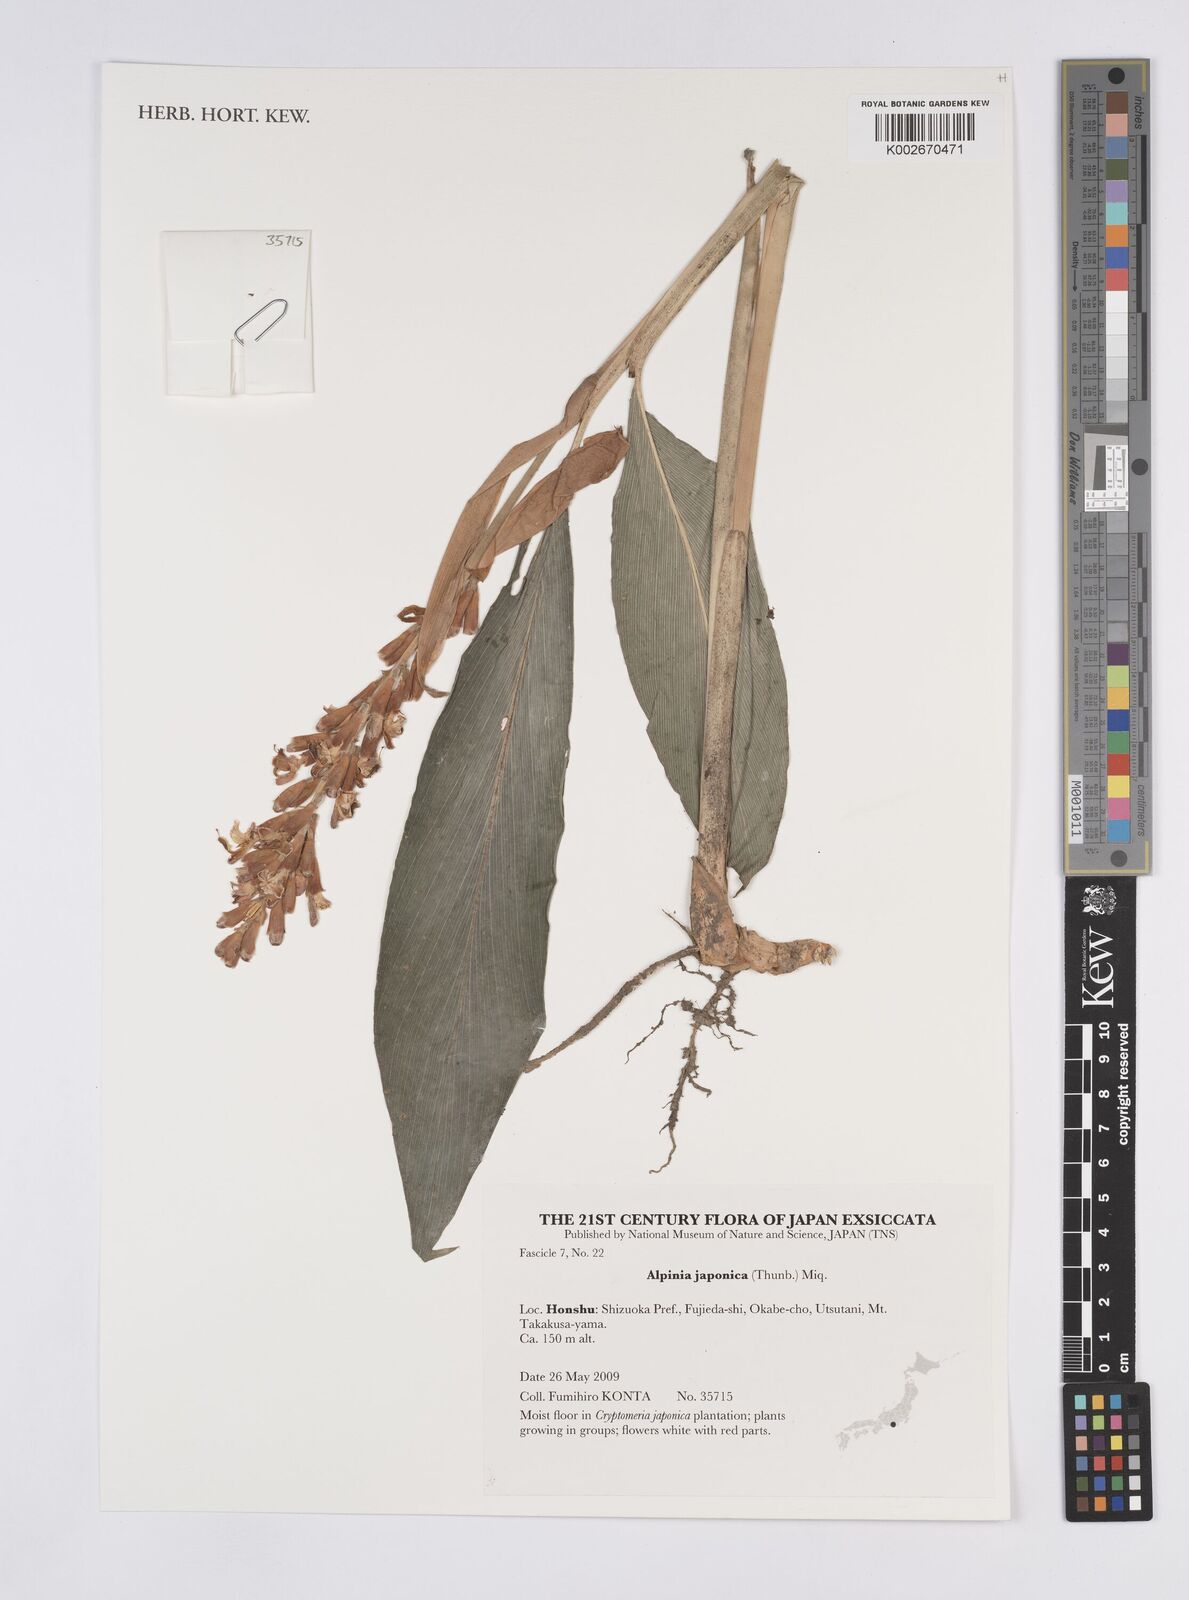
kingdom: Plantae
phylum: Tracheophyta
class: Liliopsida
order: Zingiberales
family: Zingiberaceae
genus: Alpinia
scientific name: Alpinia japonica
